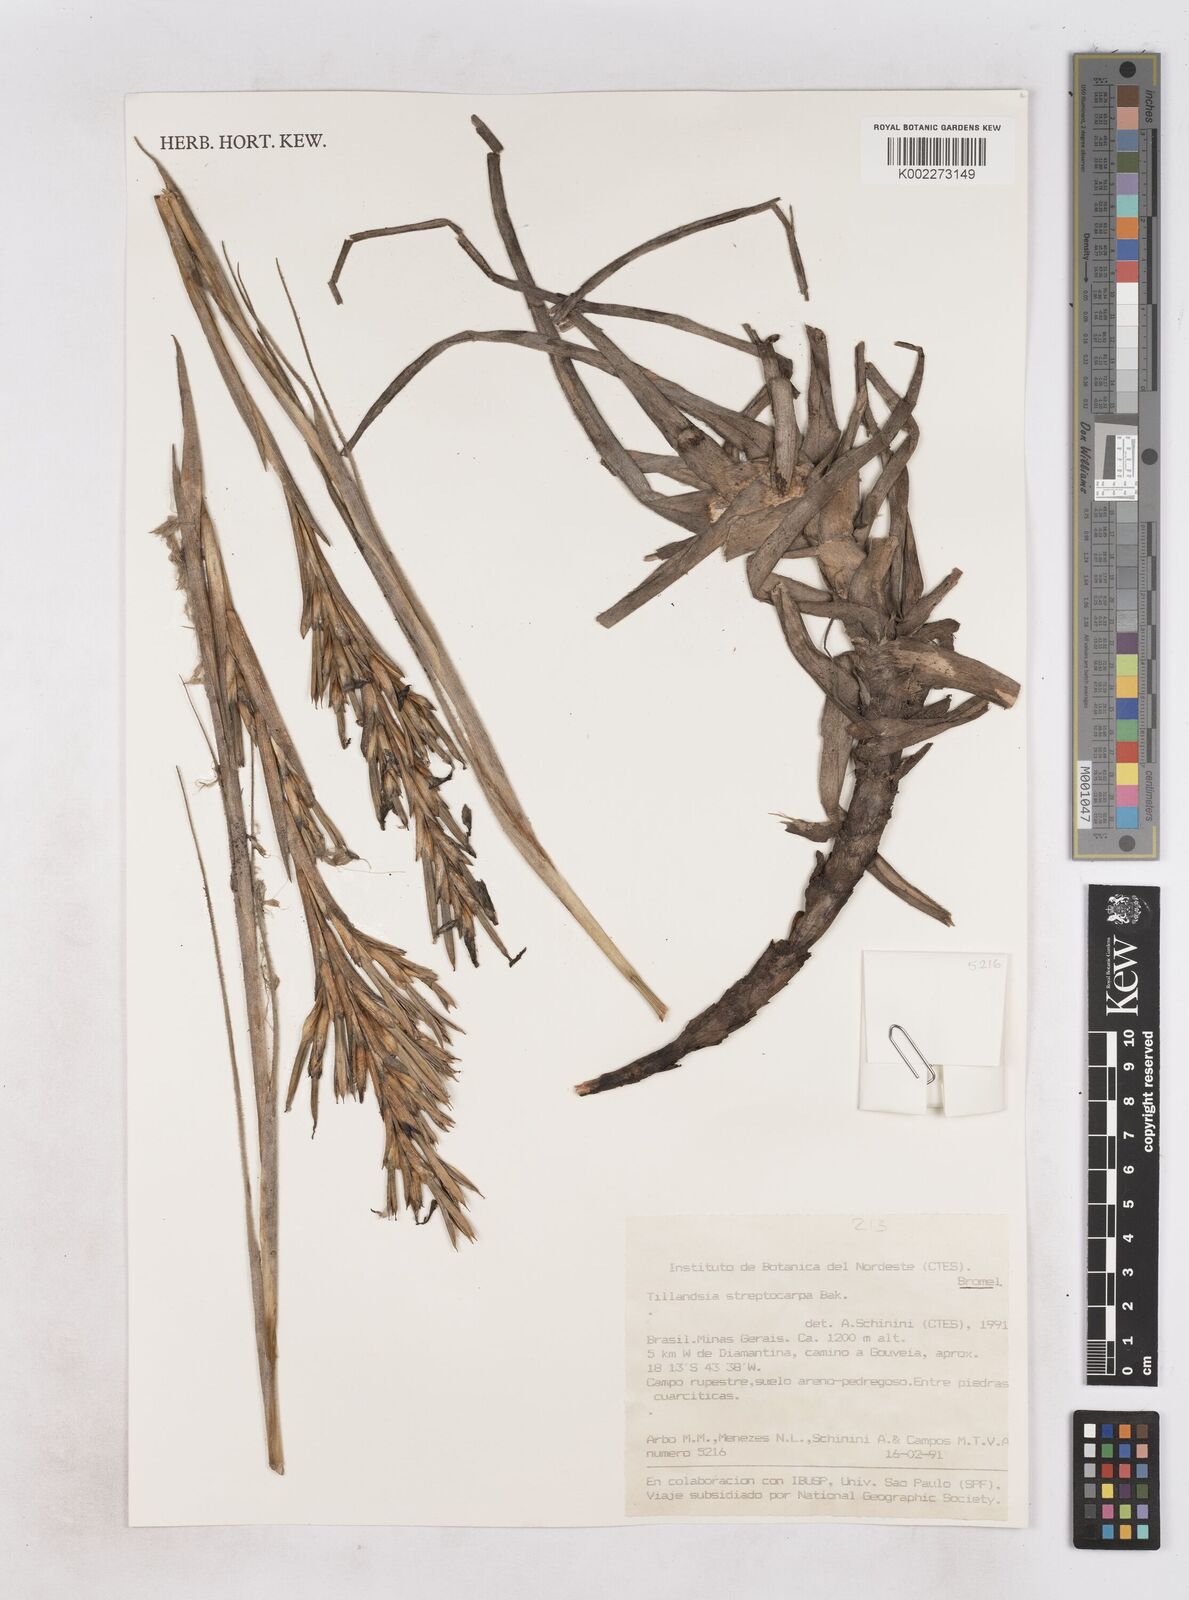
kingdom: Plantae
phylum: Tracheophyta
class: Liliopsida
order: Poales
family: Bromeliaceae
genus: Tillandsia
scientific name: Tillandsia streptocarpa
